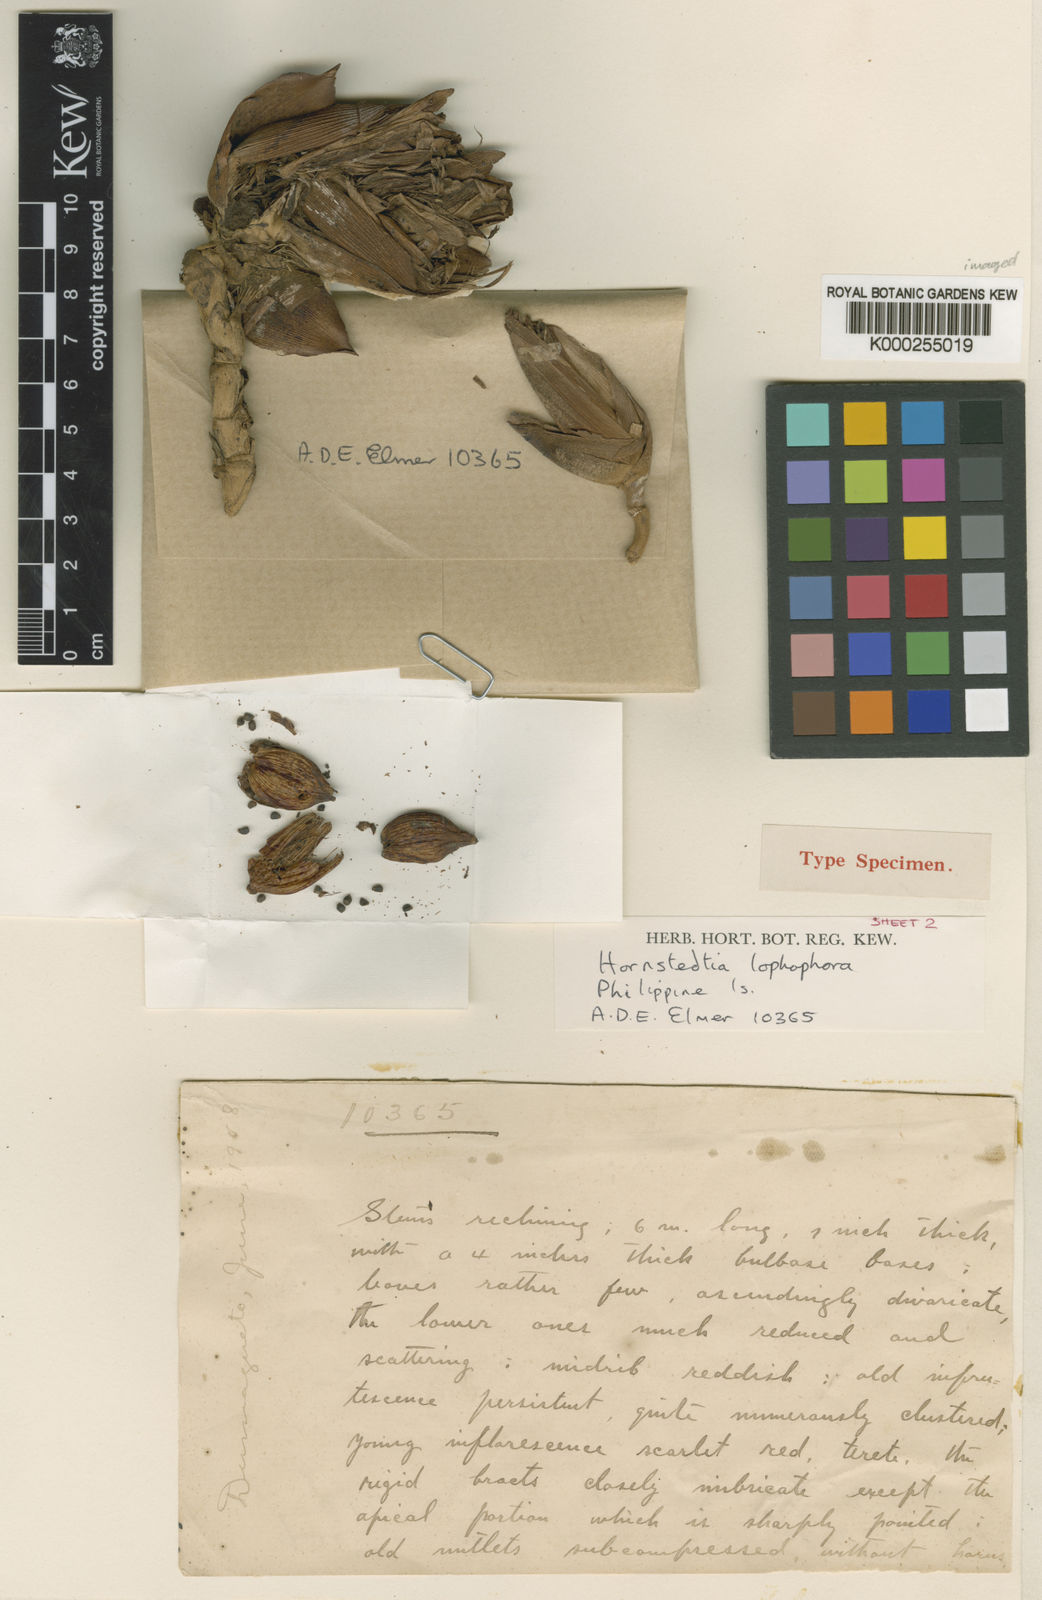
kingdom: Plantae
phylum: Tracheophyta
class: Liliopsida
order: Zingiberales
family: Zingiberaceae
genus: Hornstedtia
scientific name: Hornstedtia lophophora
